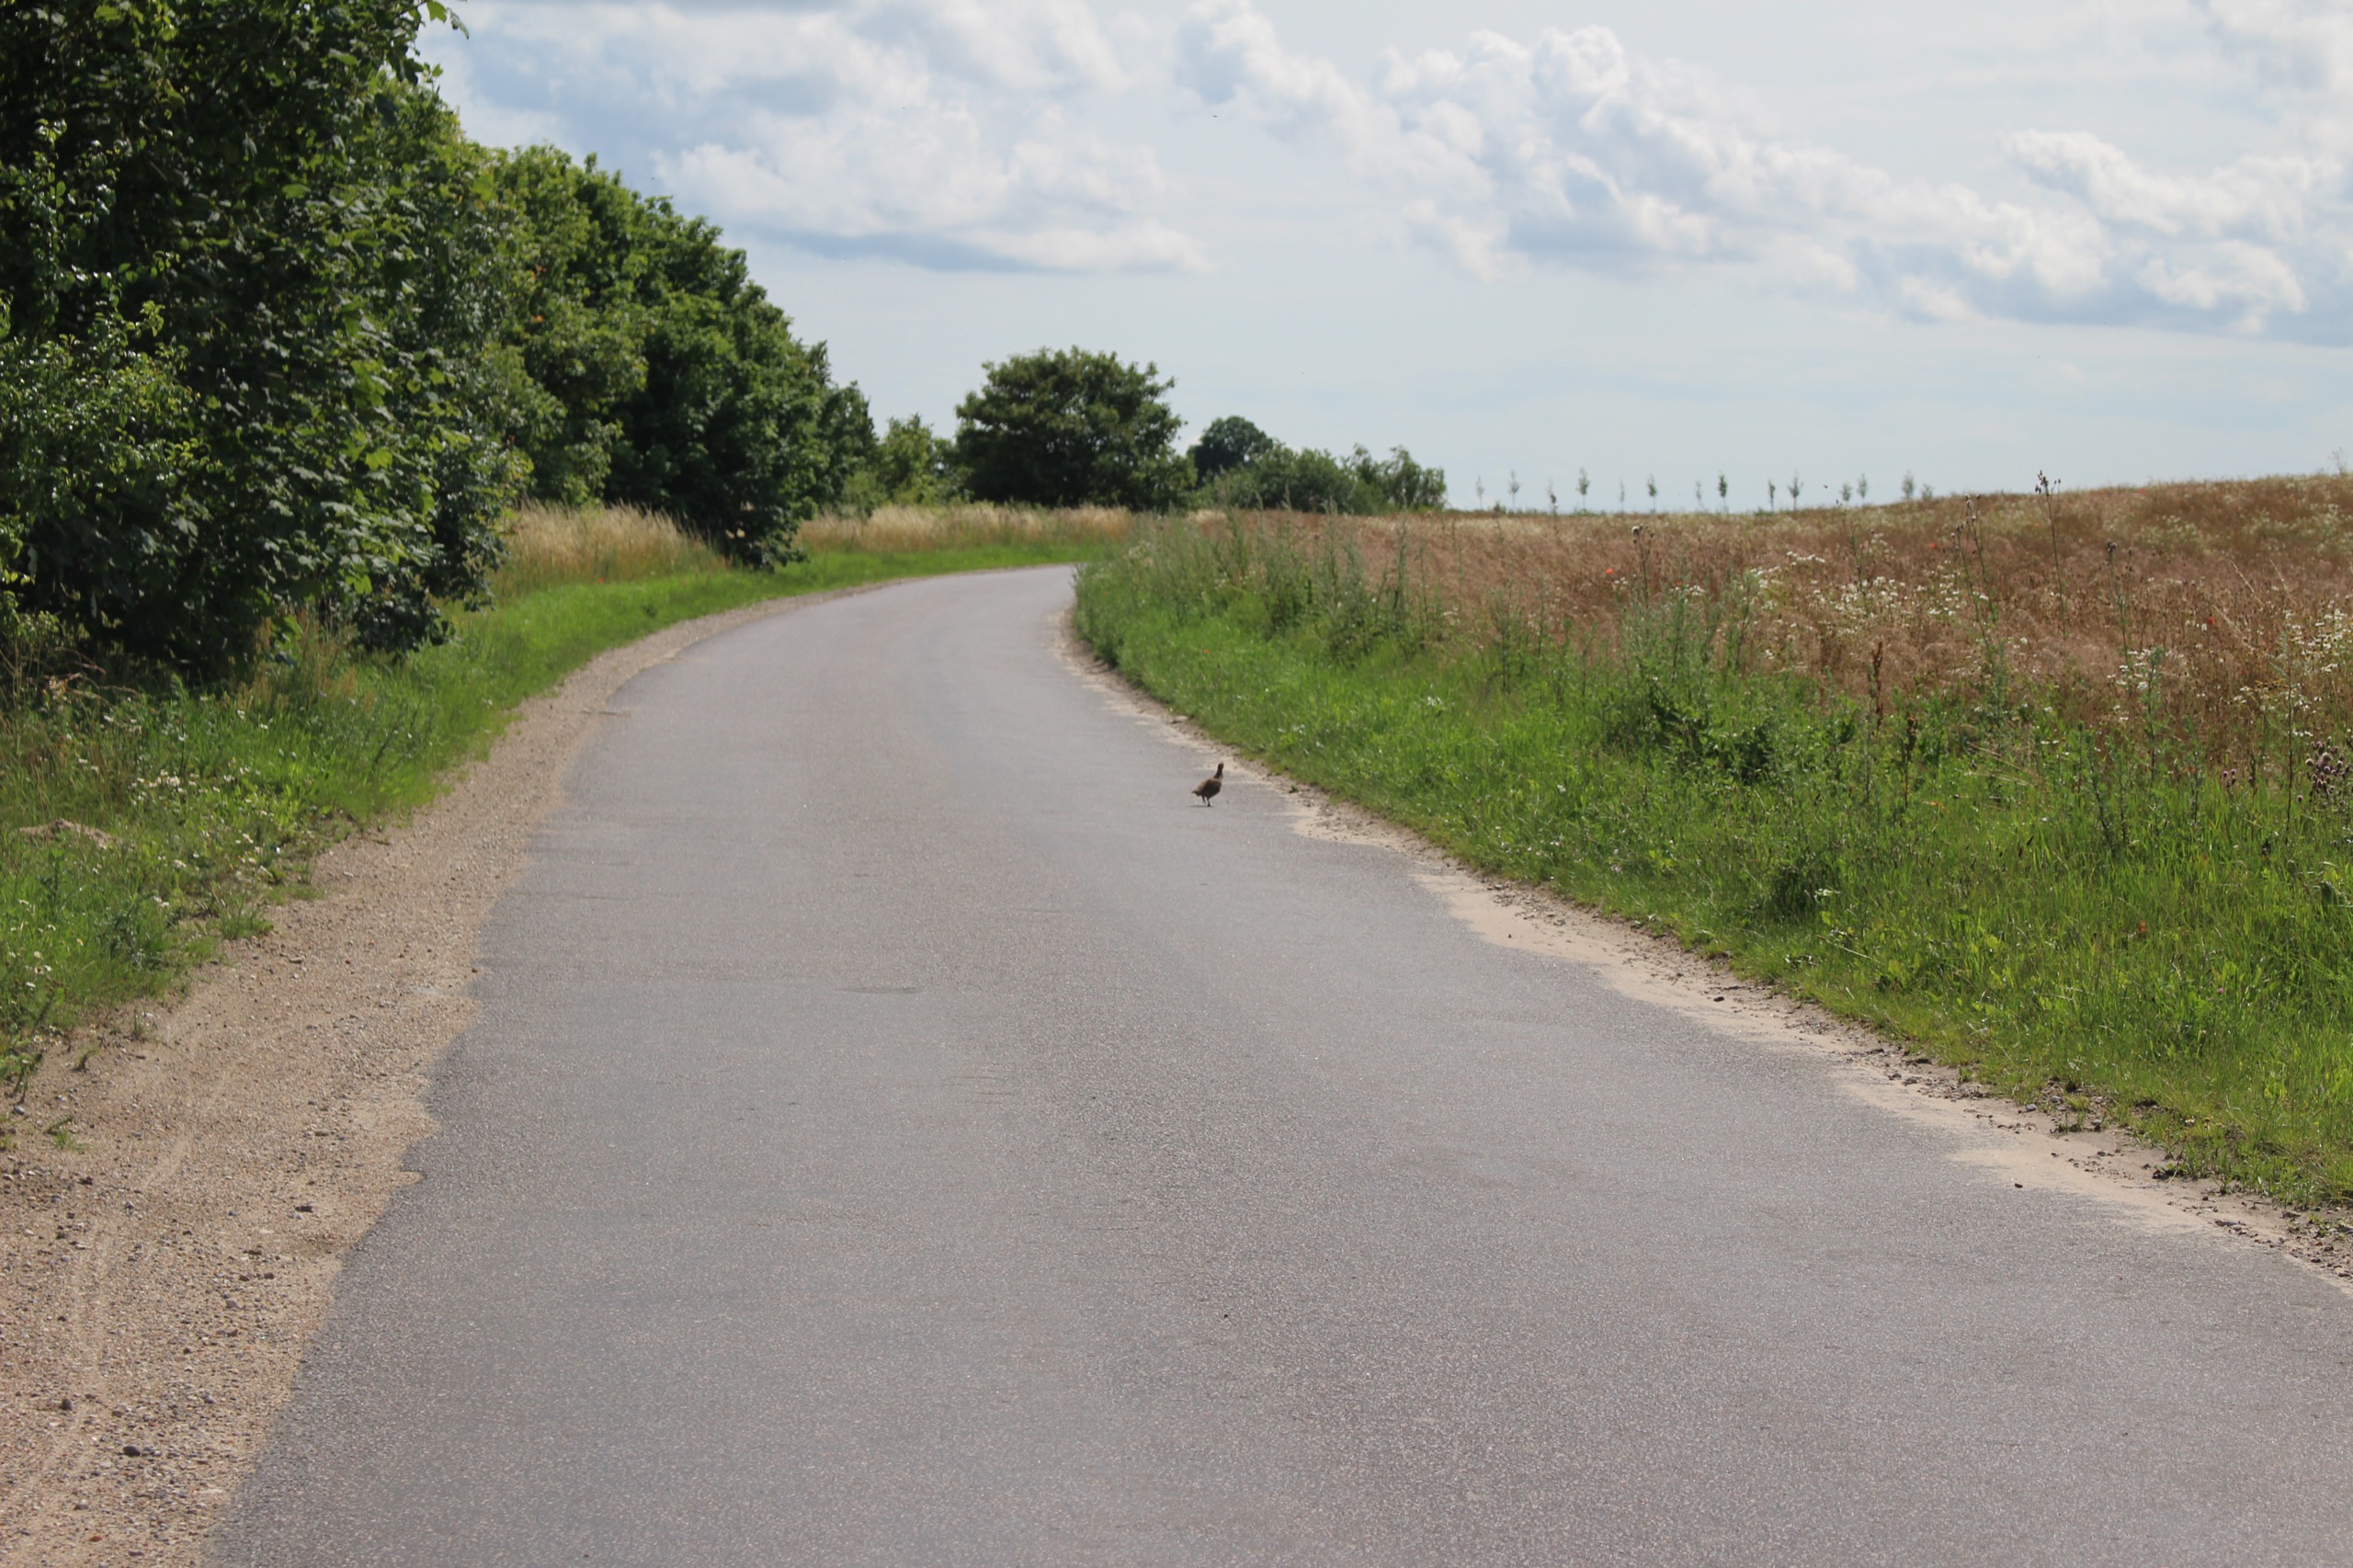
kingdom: Animalia
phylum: Chordata
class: Aves
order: Galliformes
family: Phasianidae
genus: Perdix
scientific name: Perdix perdix
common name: Agerhøne
